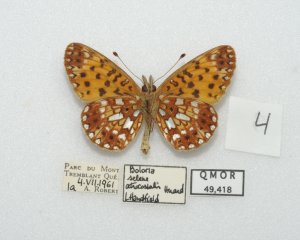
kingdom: Animalia
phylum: Arthropoda
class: Insecta
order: Lepidoptera
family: Nymphalidae
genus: Boloria
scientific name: Boloria selene
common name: Silver-bordered Fritillary
